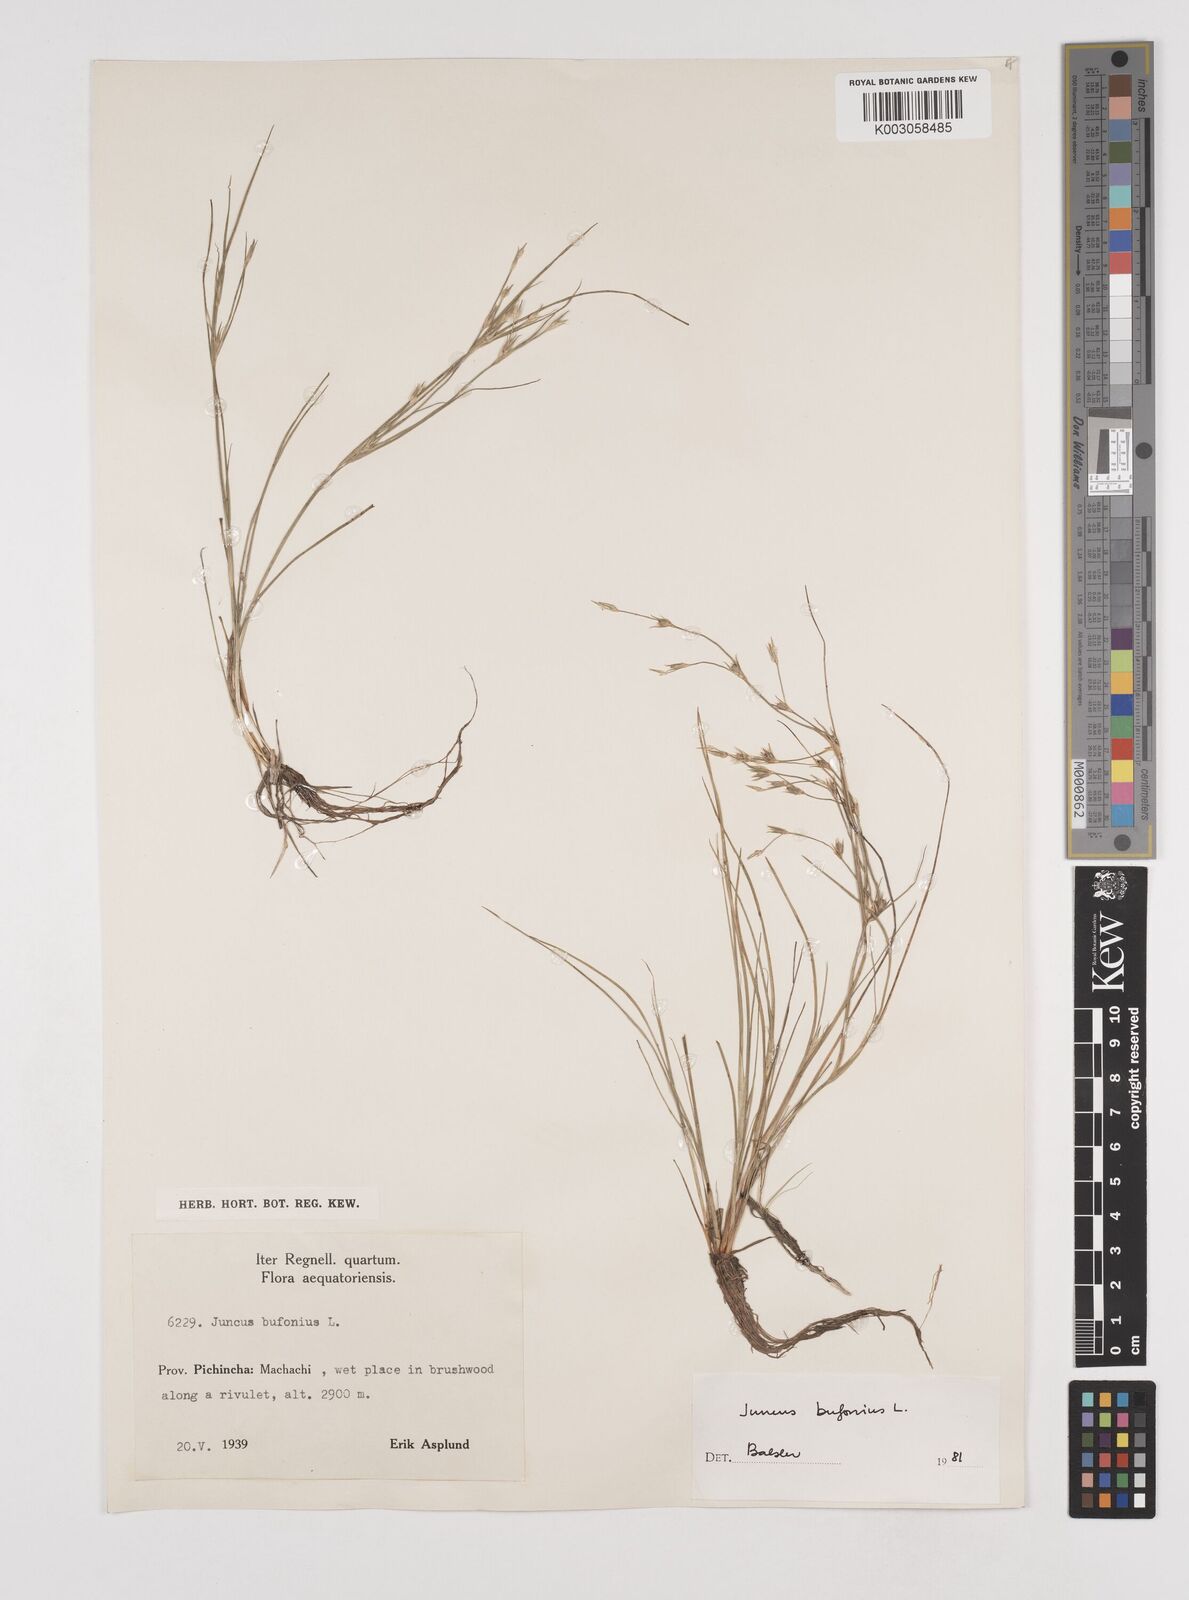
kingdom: Plantae
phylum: Tracheophyta
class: Liliopsida
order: Poales
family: Juncaceae
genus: Juncus
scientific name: Juncus bufonius
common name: Toad rush
